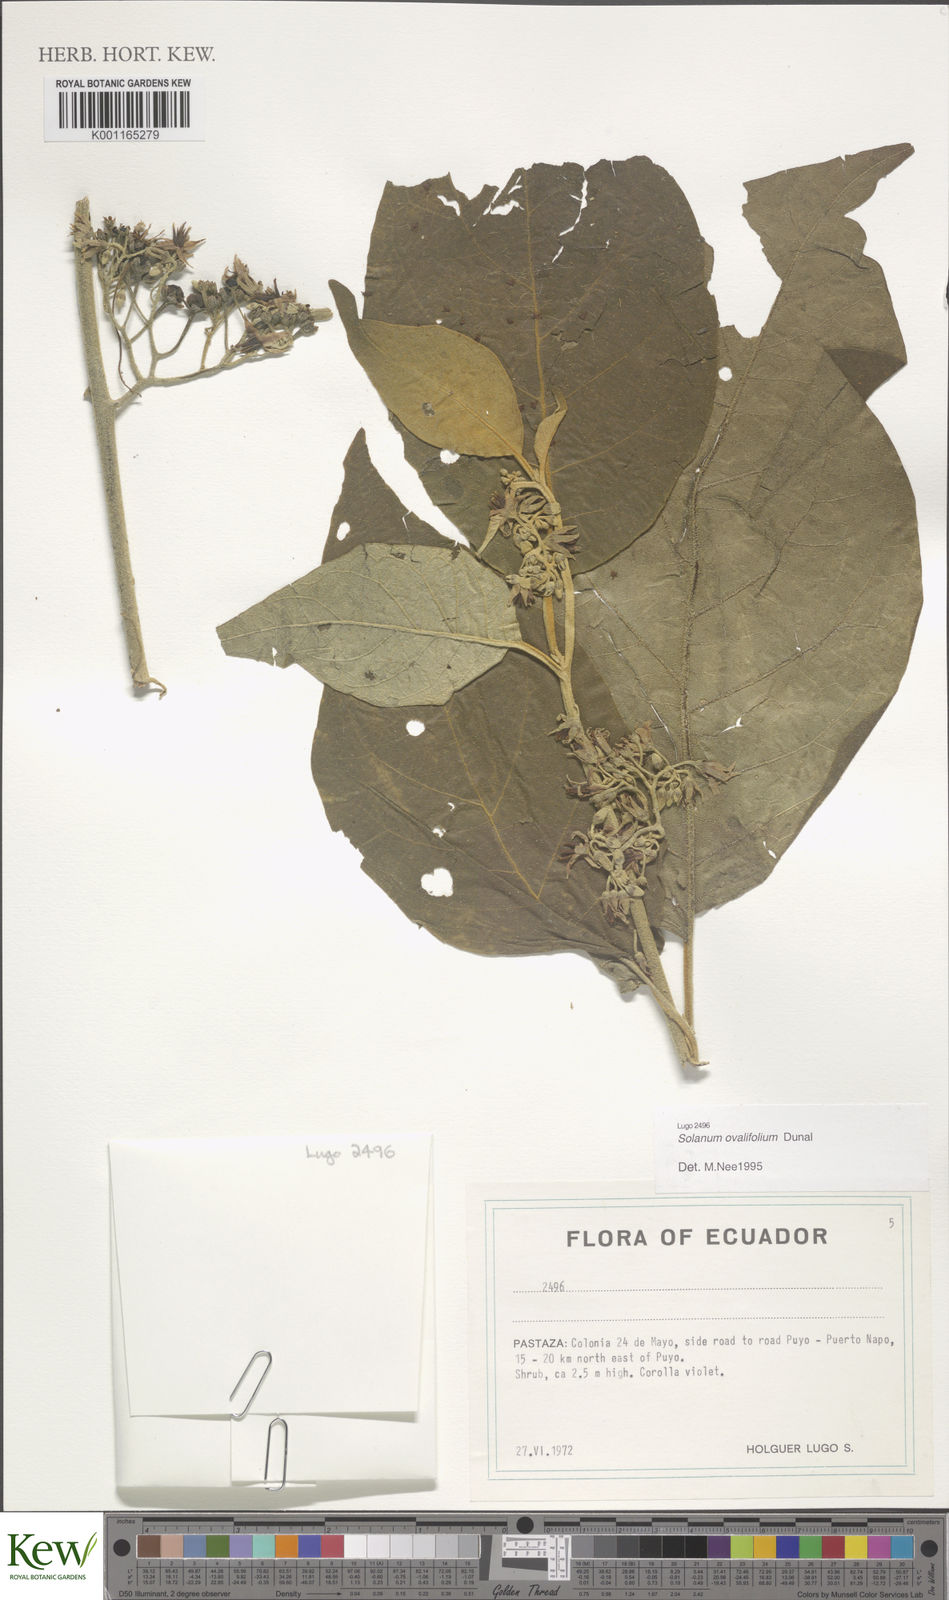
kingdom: Plantae
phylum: Tracheophyta
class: Magnoliopsida
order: Solanales
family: Solanaceae
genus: Solanum
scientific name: Solanum ovalifolium
